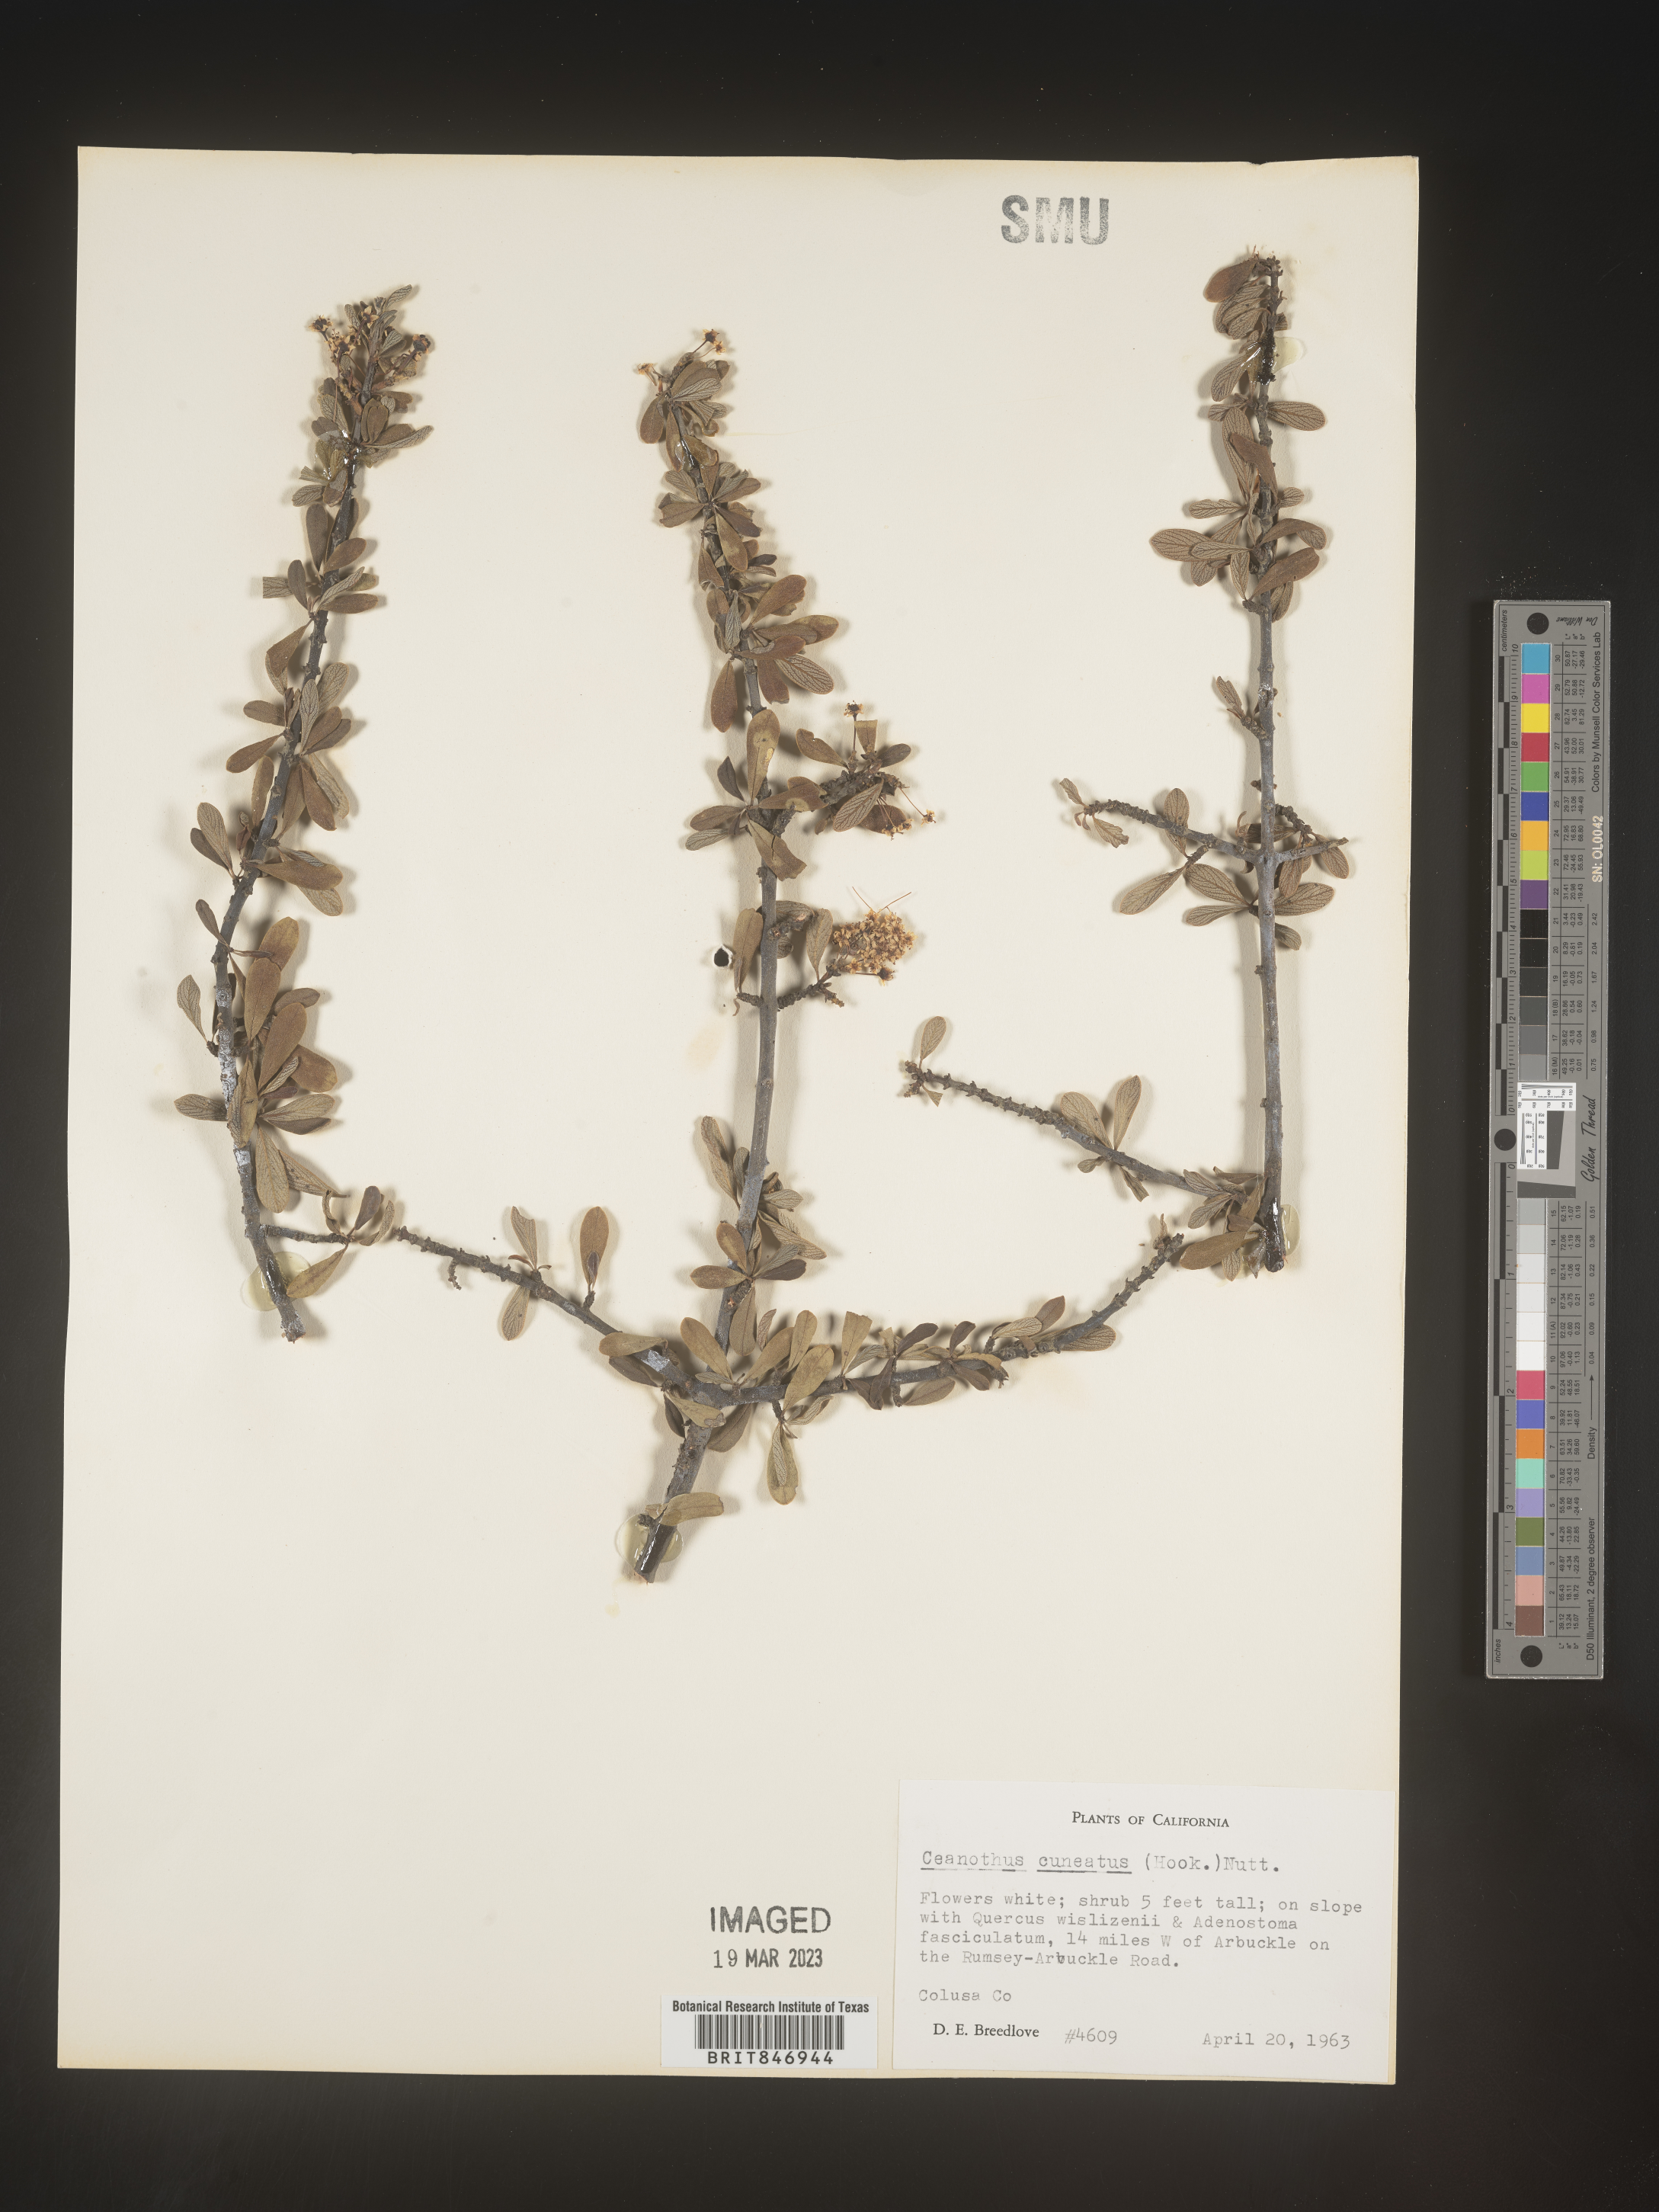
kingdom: Plantae
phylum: Tracheophyta
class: Magnoliopsida
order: Rosales
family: Rhamnaceae
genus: Ceanothus
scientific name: Ceanothus cuneatus
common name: Cuneate ceanothus
